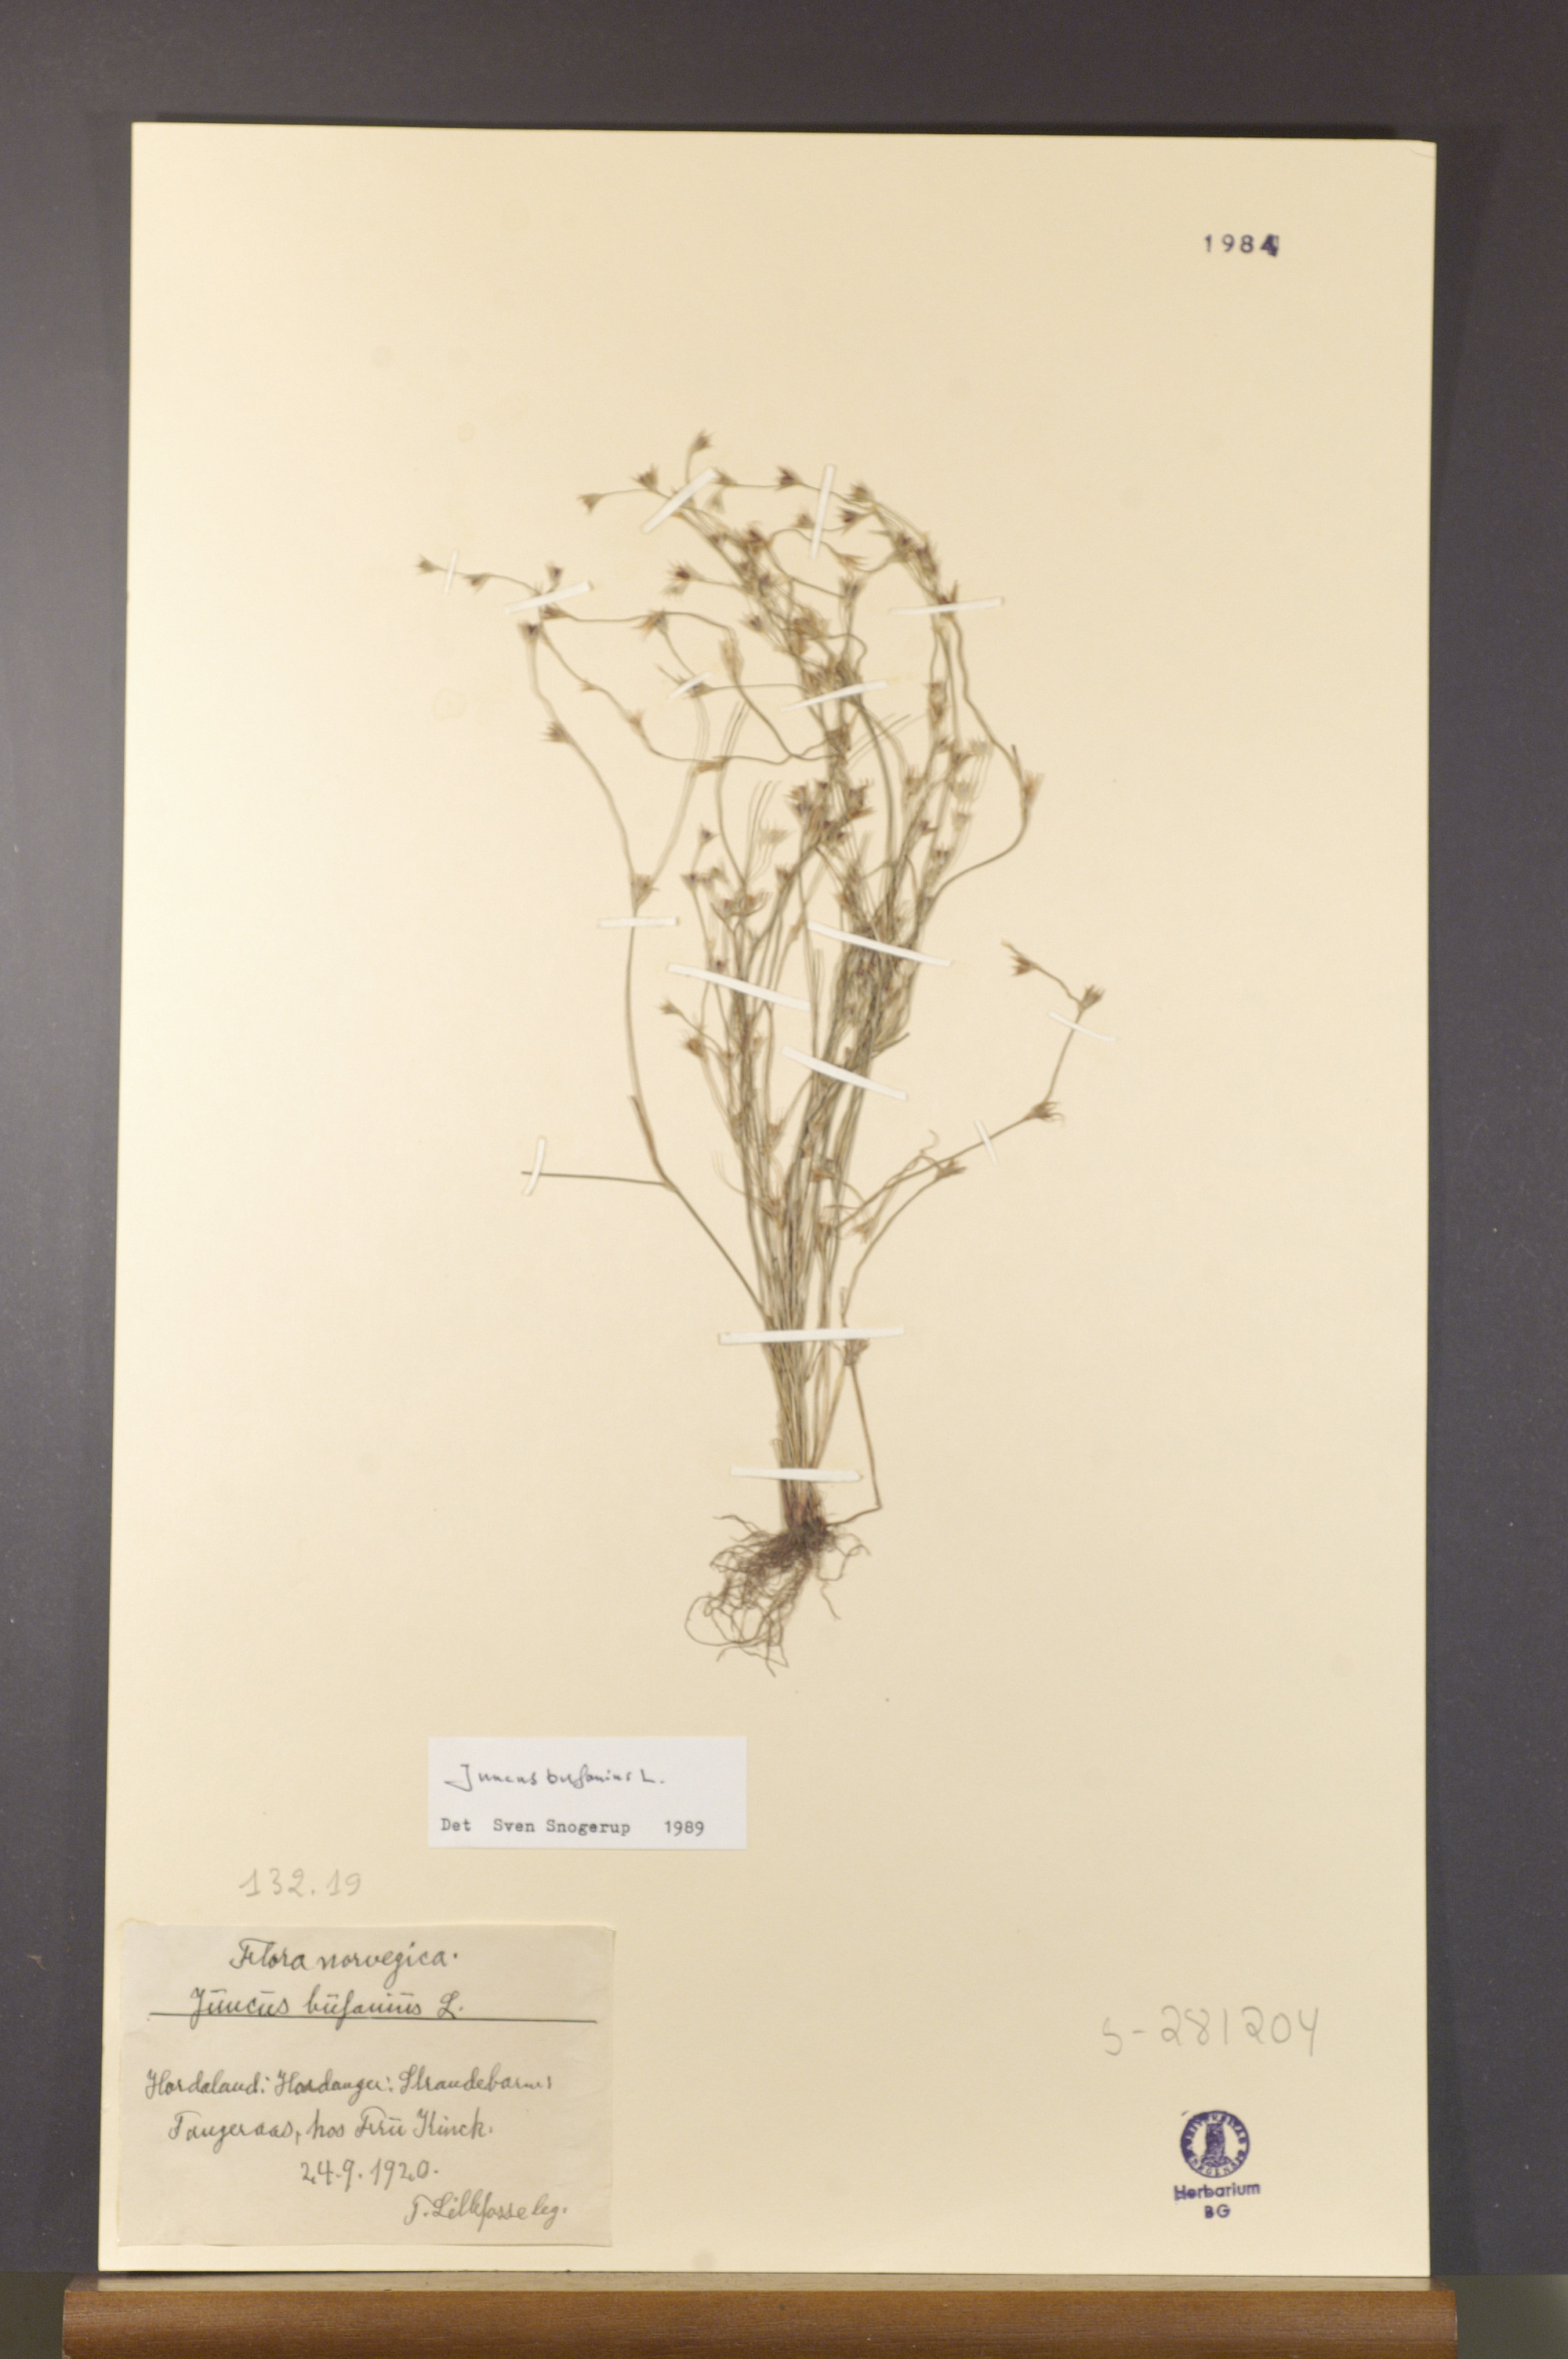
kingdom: Plantae
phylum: Tracheophyta
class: Liliopsida
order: Poales
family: Juncaceae
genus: Juncus
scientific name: Juncus bufonius
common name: Toad rush
